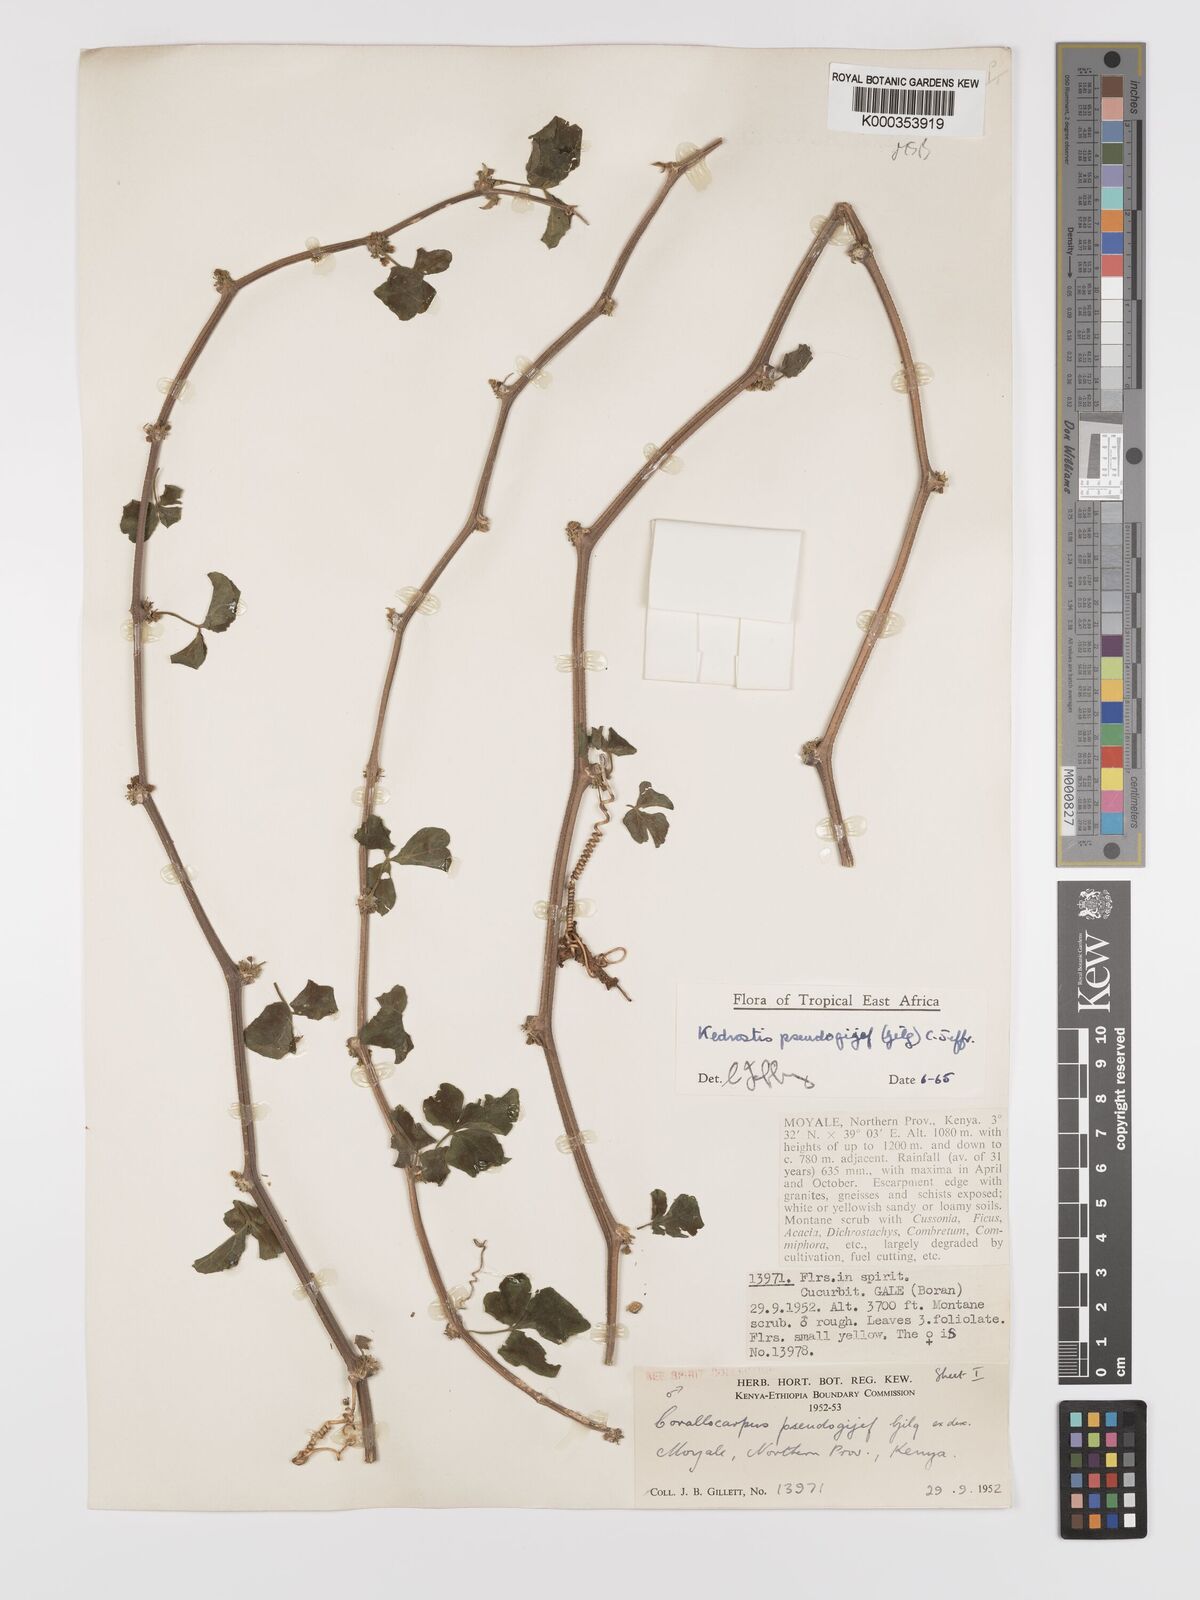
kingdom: Plantae
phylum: Tracheophyta
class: Magnoliopsida
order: Cucurbitales
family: Cucurbitaceae
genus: Kedrostis
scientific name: Kedrostis pseudogijef
